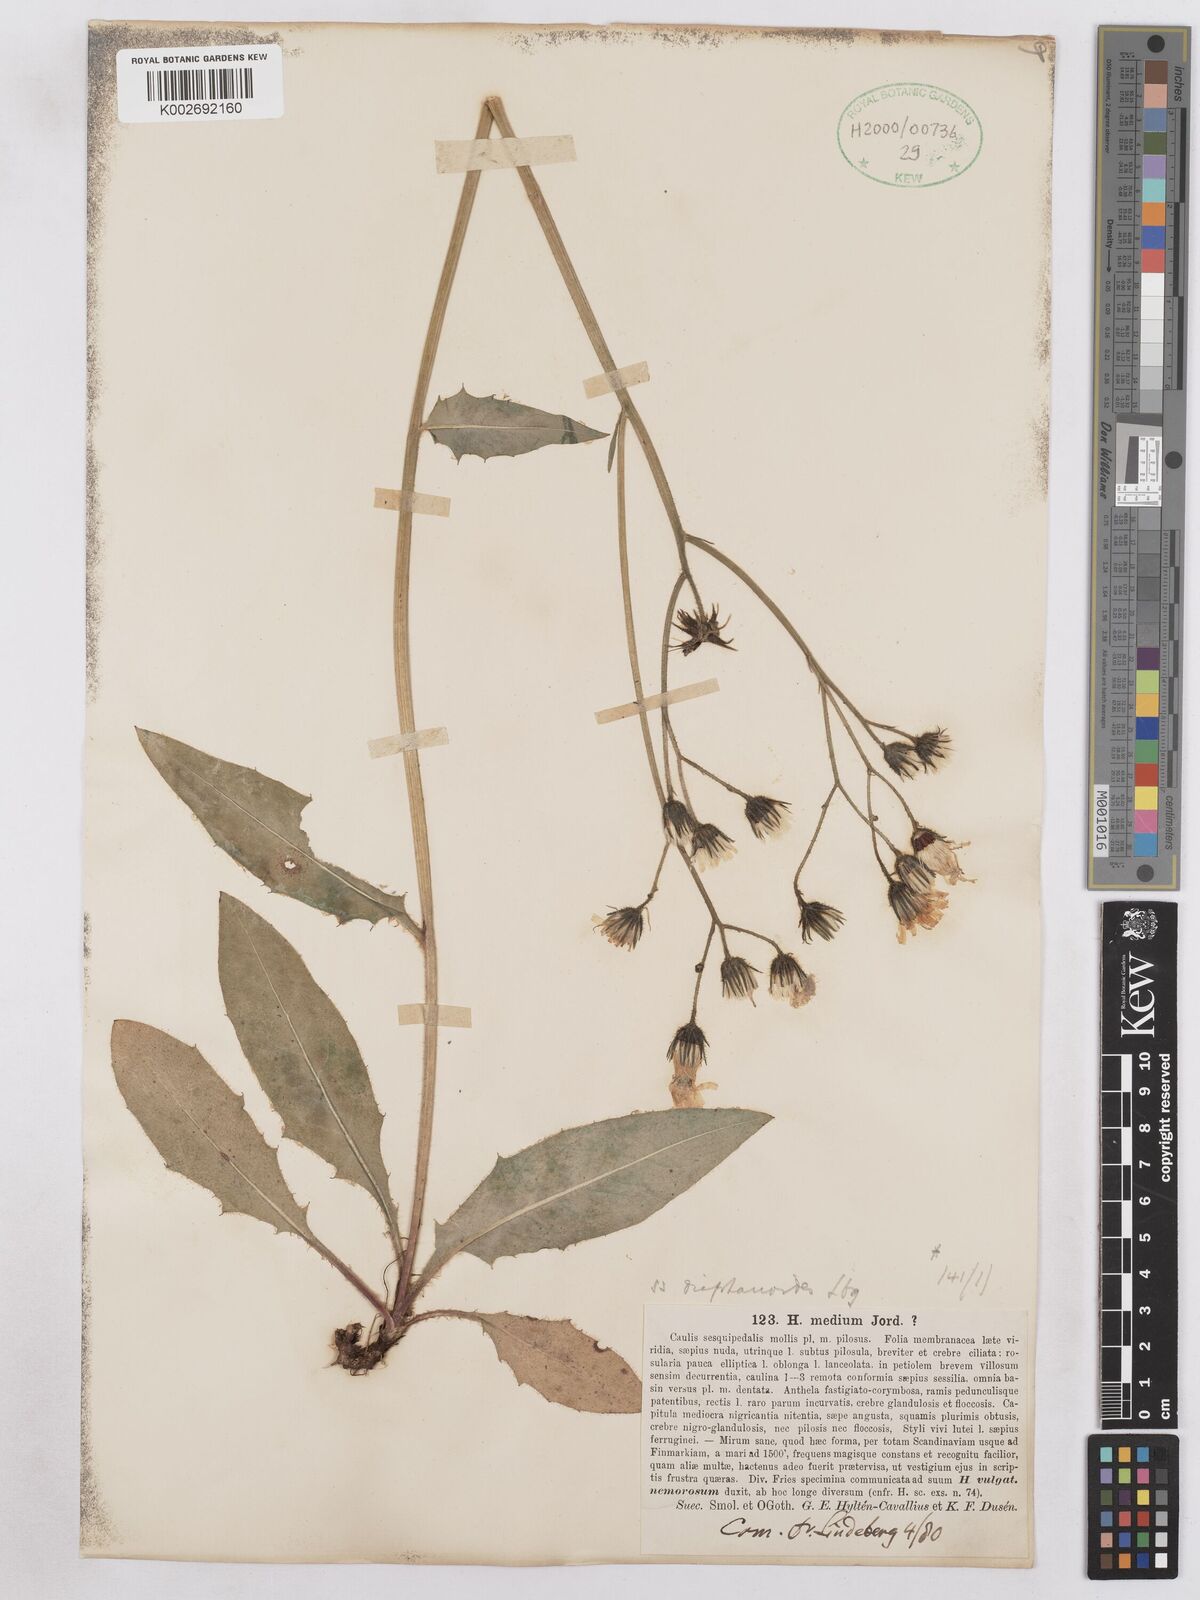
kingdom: Plantae
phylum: Tracheophyta
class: Magnoliopsida
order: Asterales
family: Asteraceae
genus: Hieracium
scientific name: Hieracium diaphanoides
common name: Fine-bracted hawkweed
